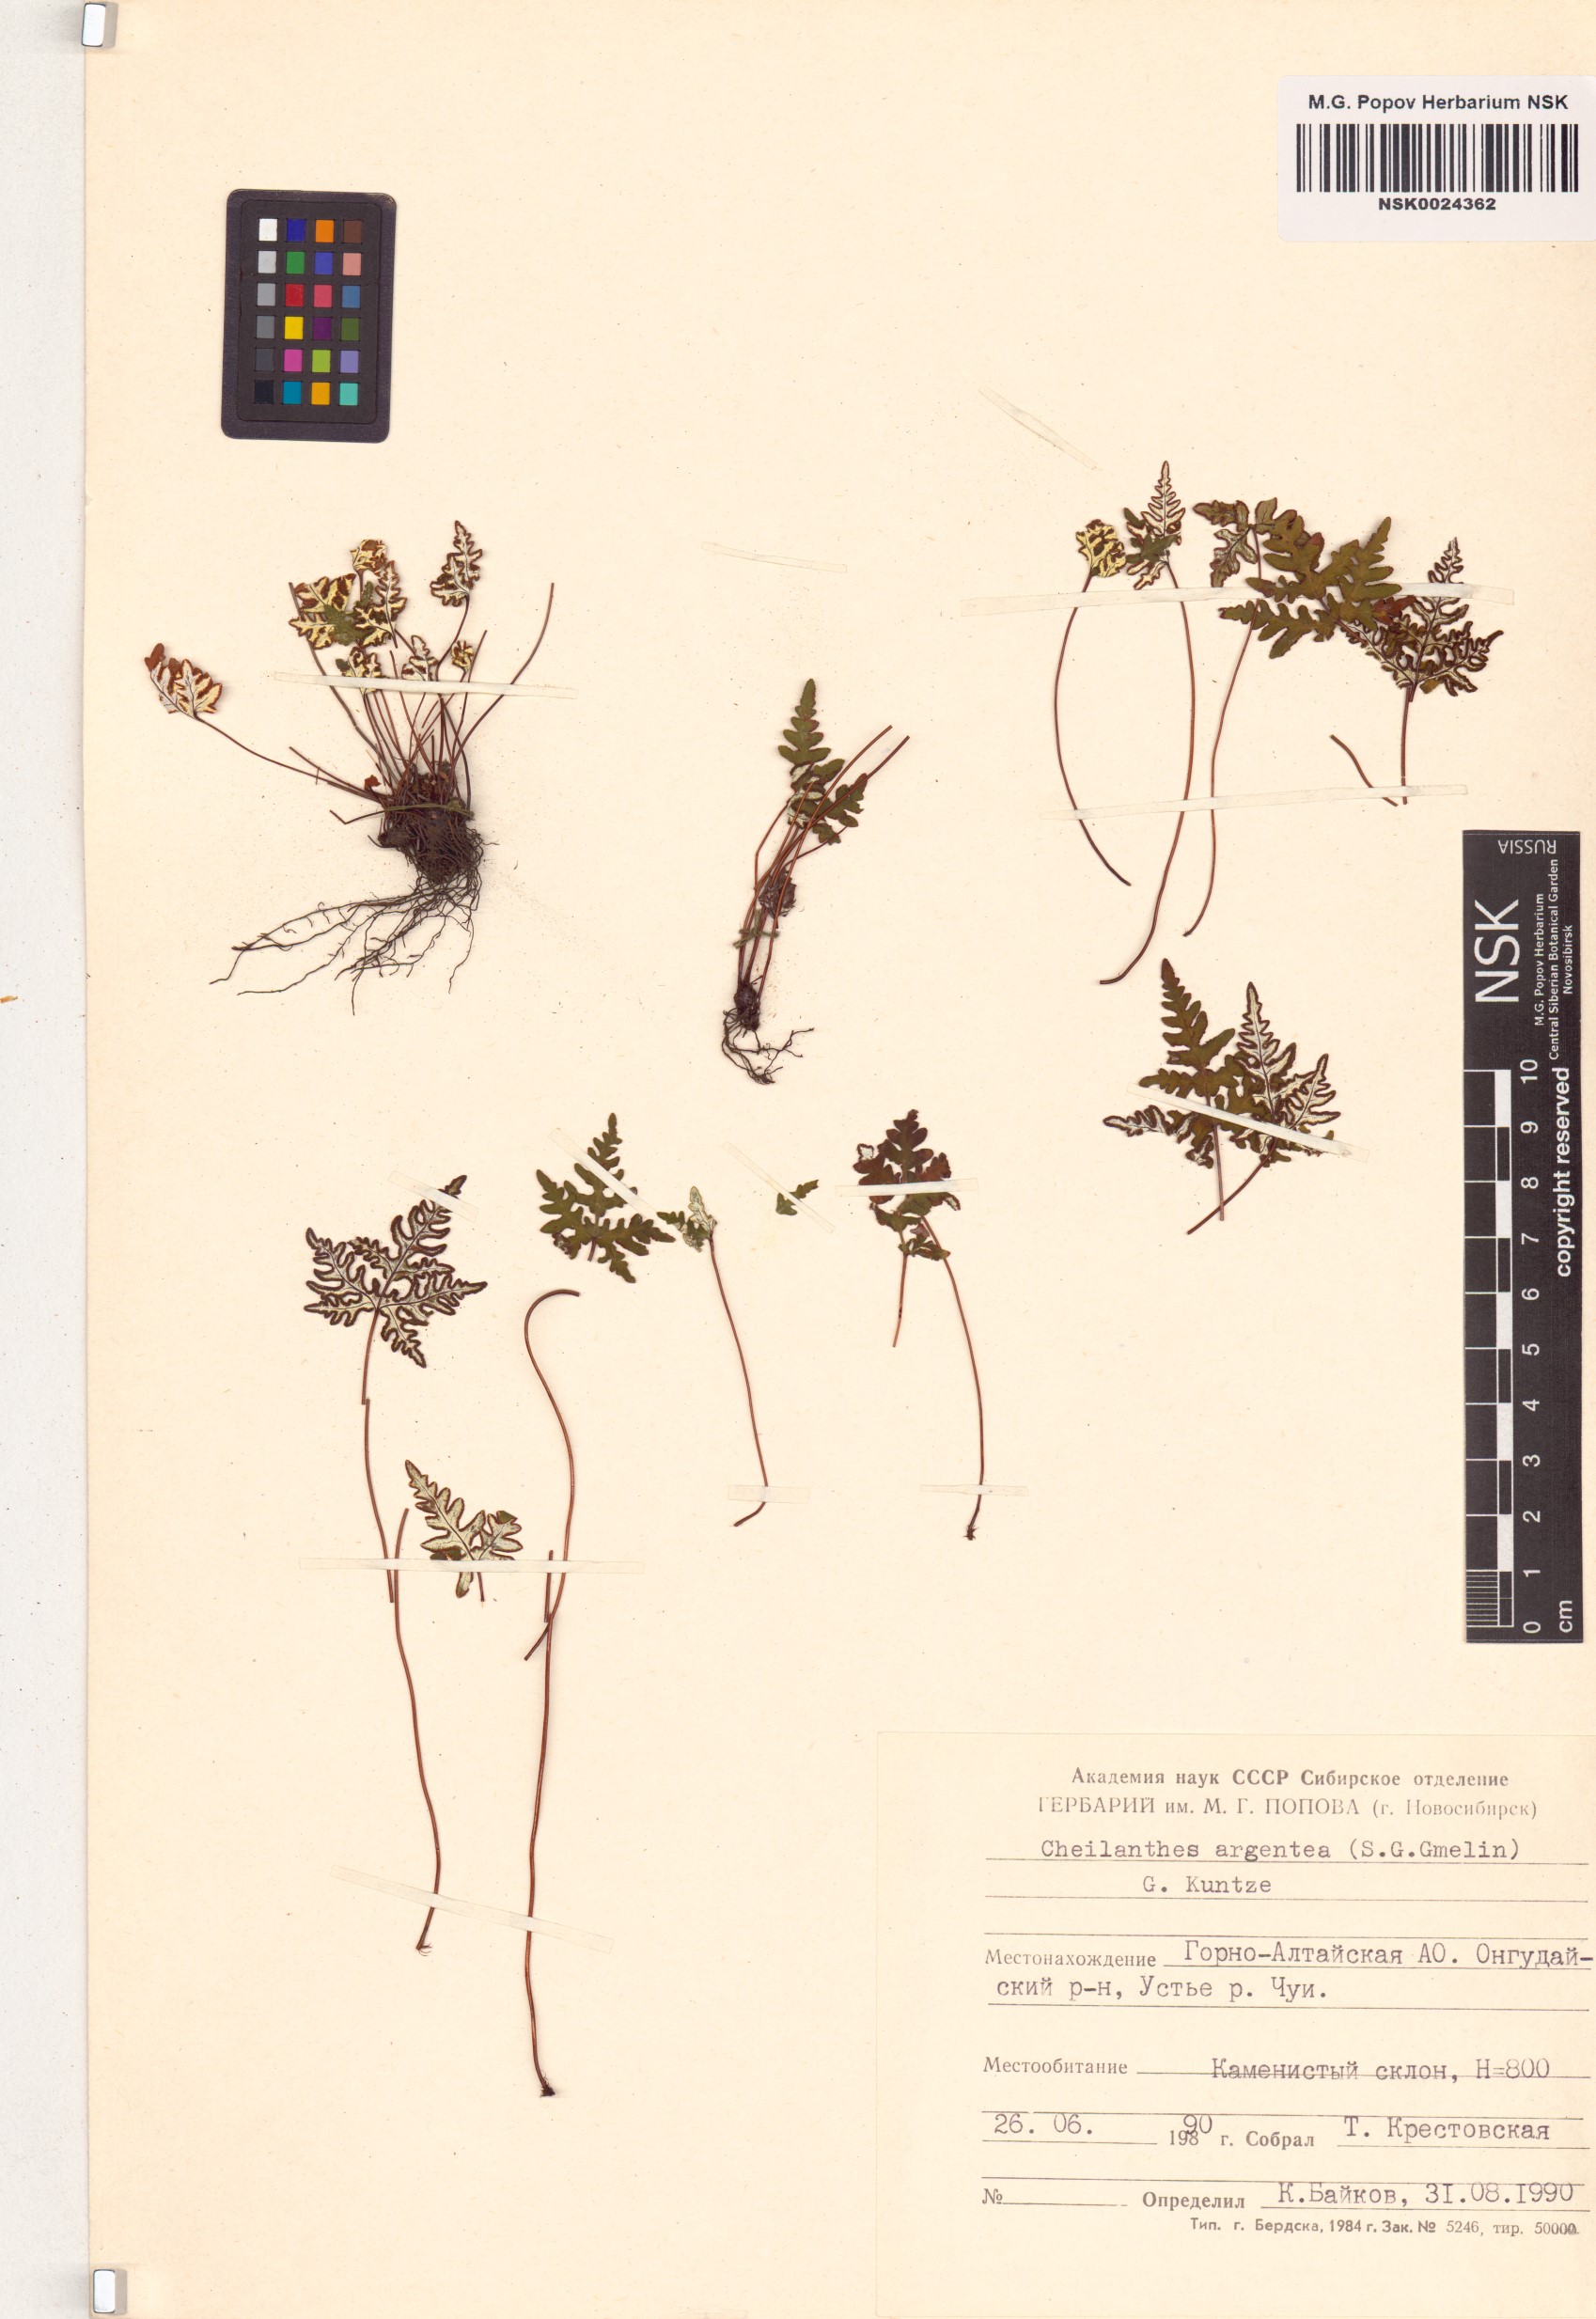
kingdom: Plantae
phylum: Tracheophyta
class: Polypodiopsida
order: Polypodiales
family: Pteridaceae
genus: Aleuritopteris
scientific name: Aleuritopteris argentea
